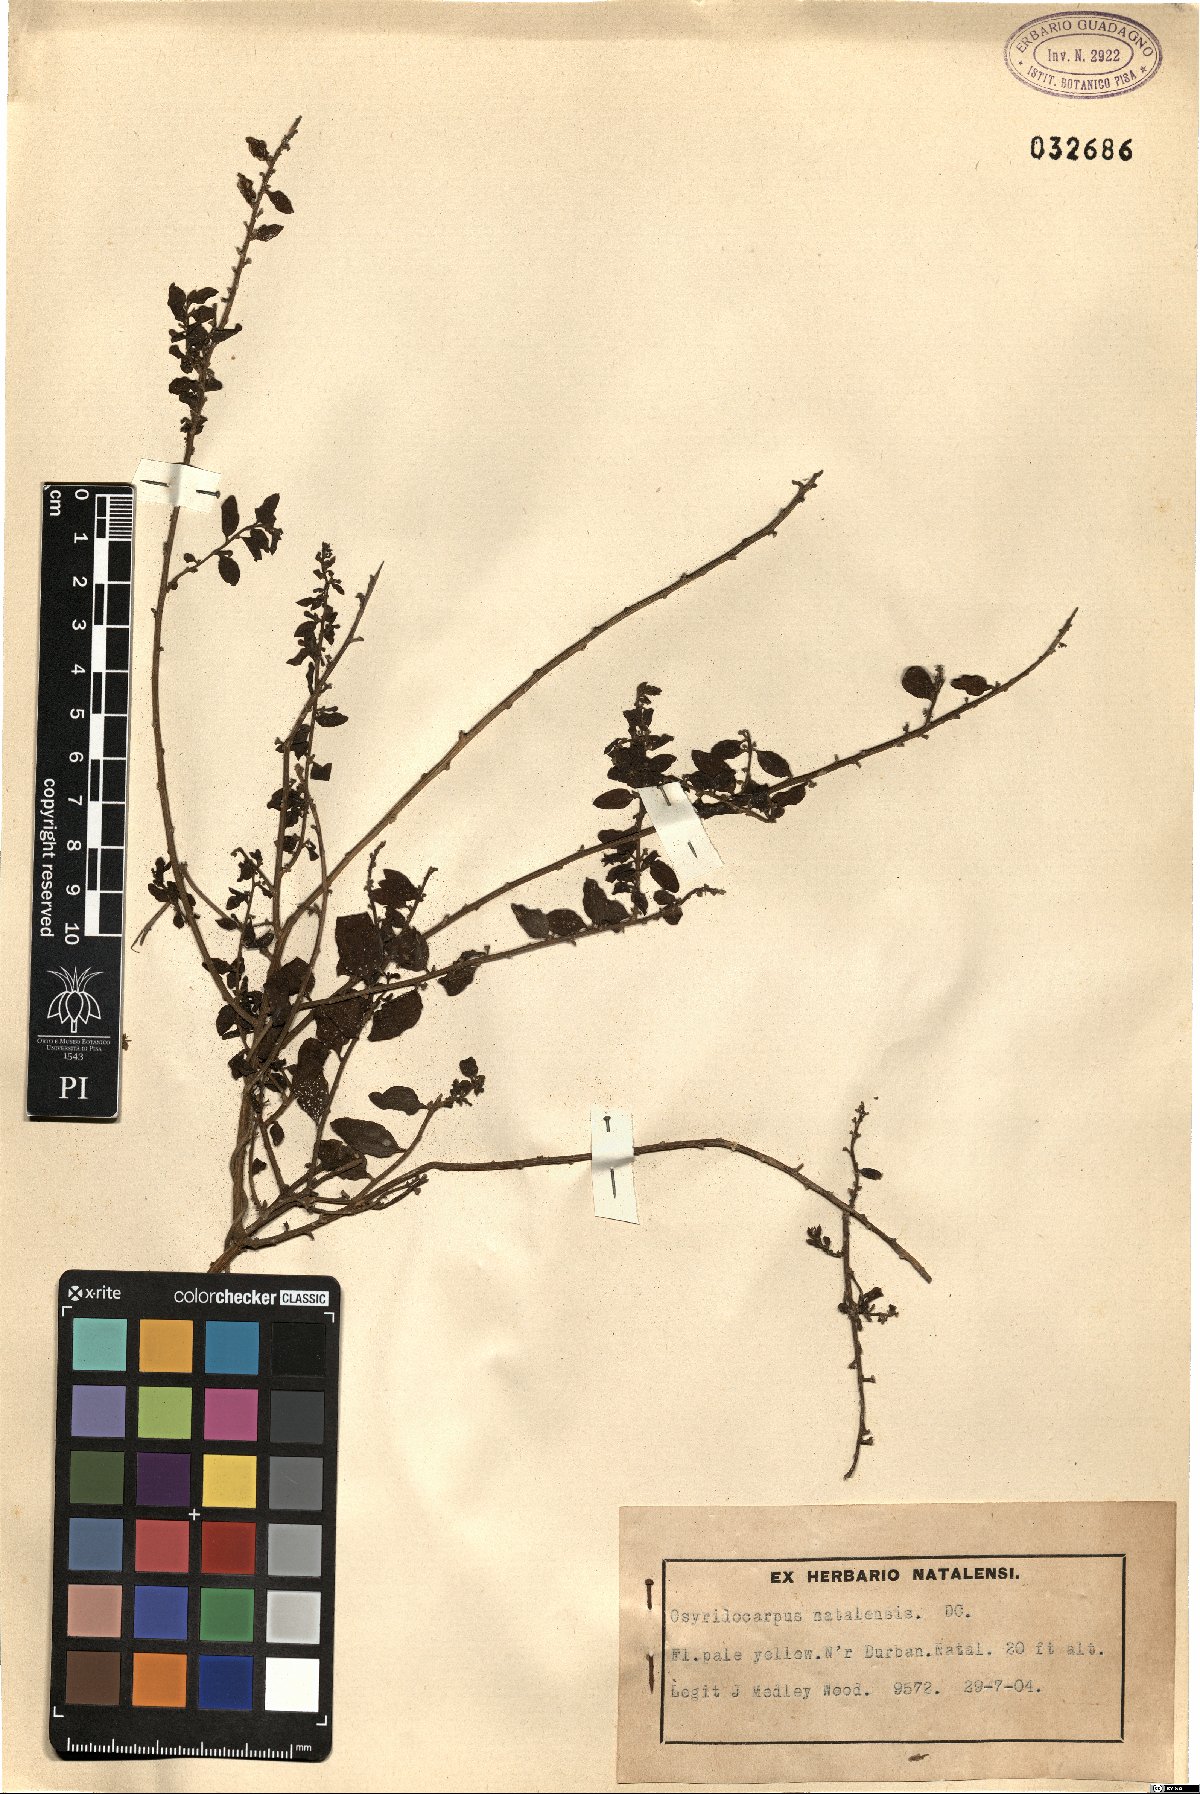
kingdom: Plantae
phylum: Tracheophyta
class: Magnoliopsida
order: Santalales
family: Thesiaceae
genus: Osyridicarpos
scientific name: Osyridicarpos schimperianus
